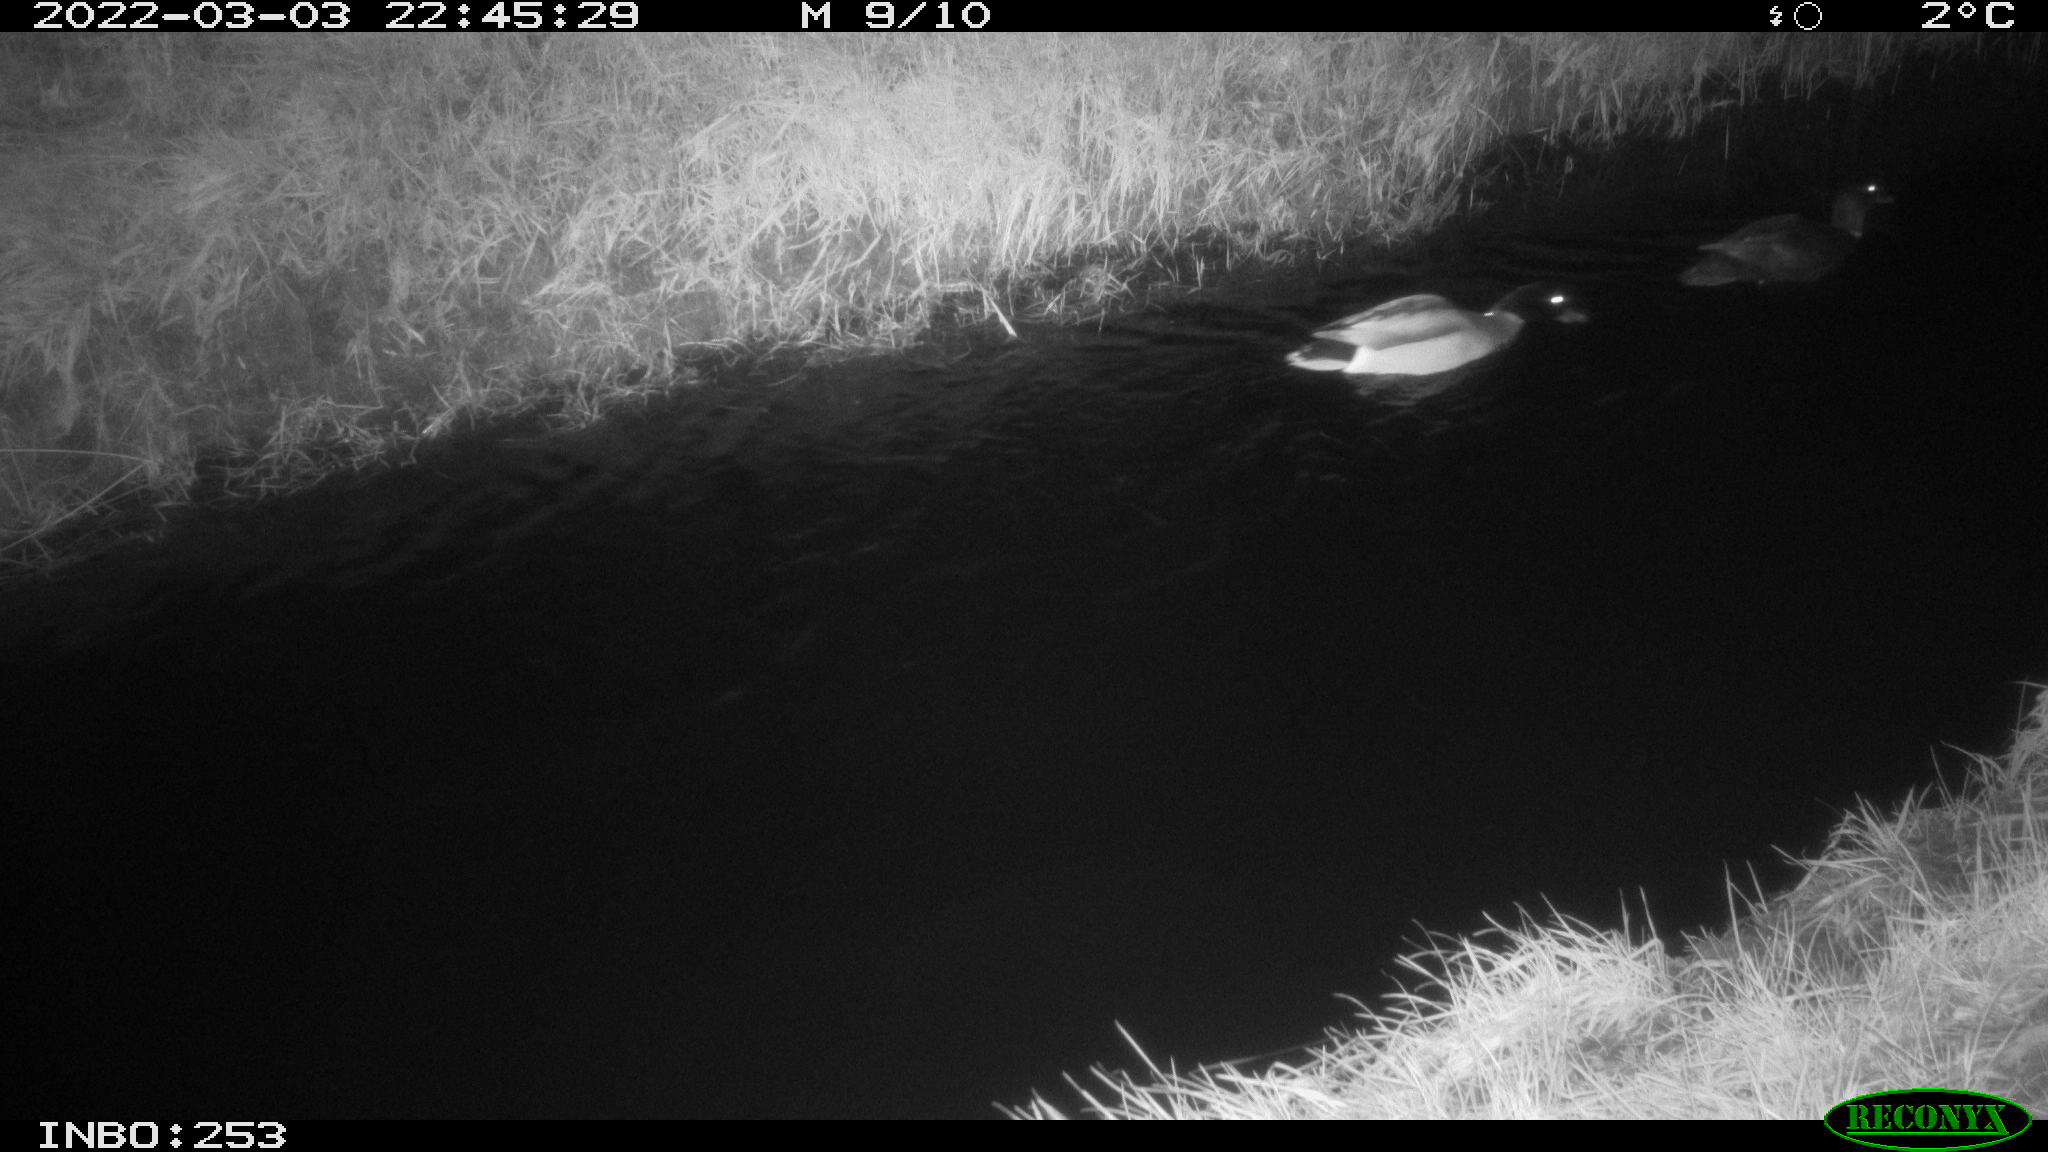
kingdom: Animalia
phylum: Chordata
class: Aves
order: Anseriformes
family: Anatidae
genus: Anas
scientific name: Anas platyrhynchos
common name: Mallard
